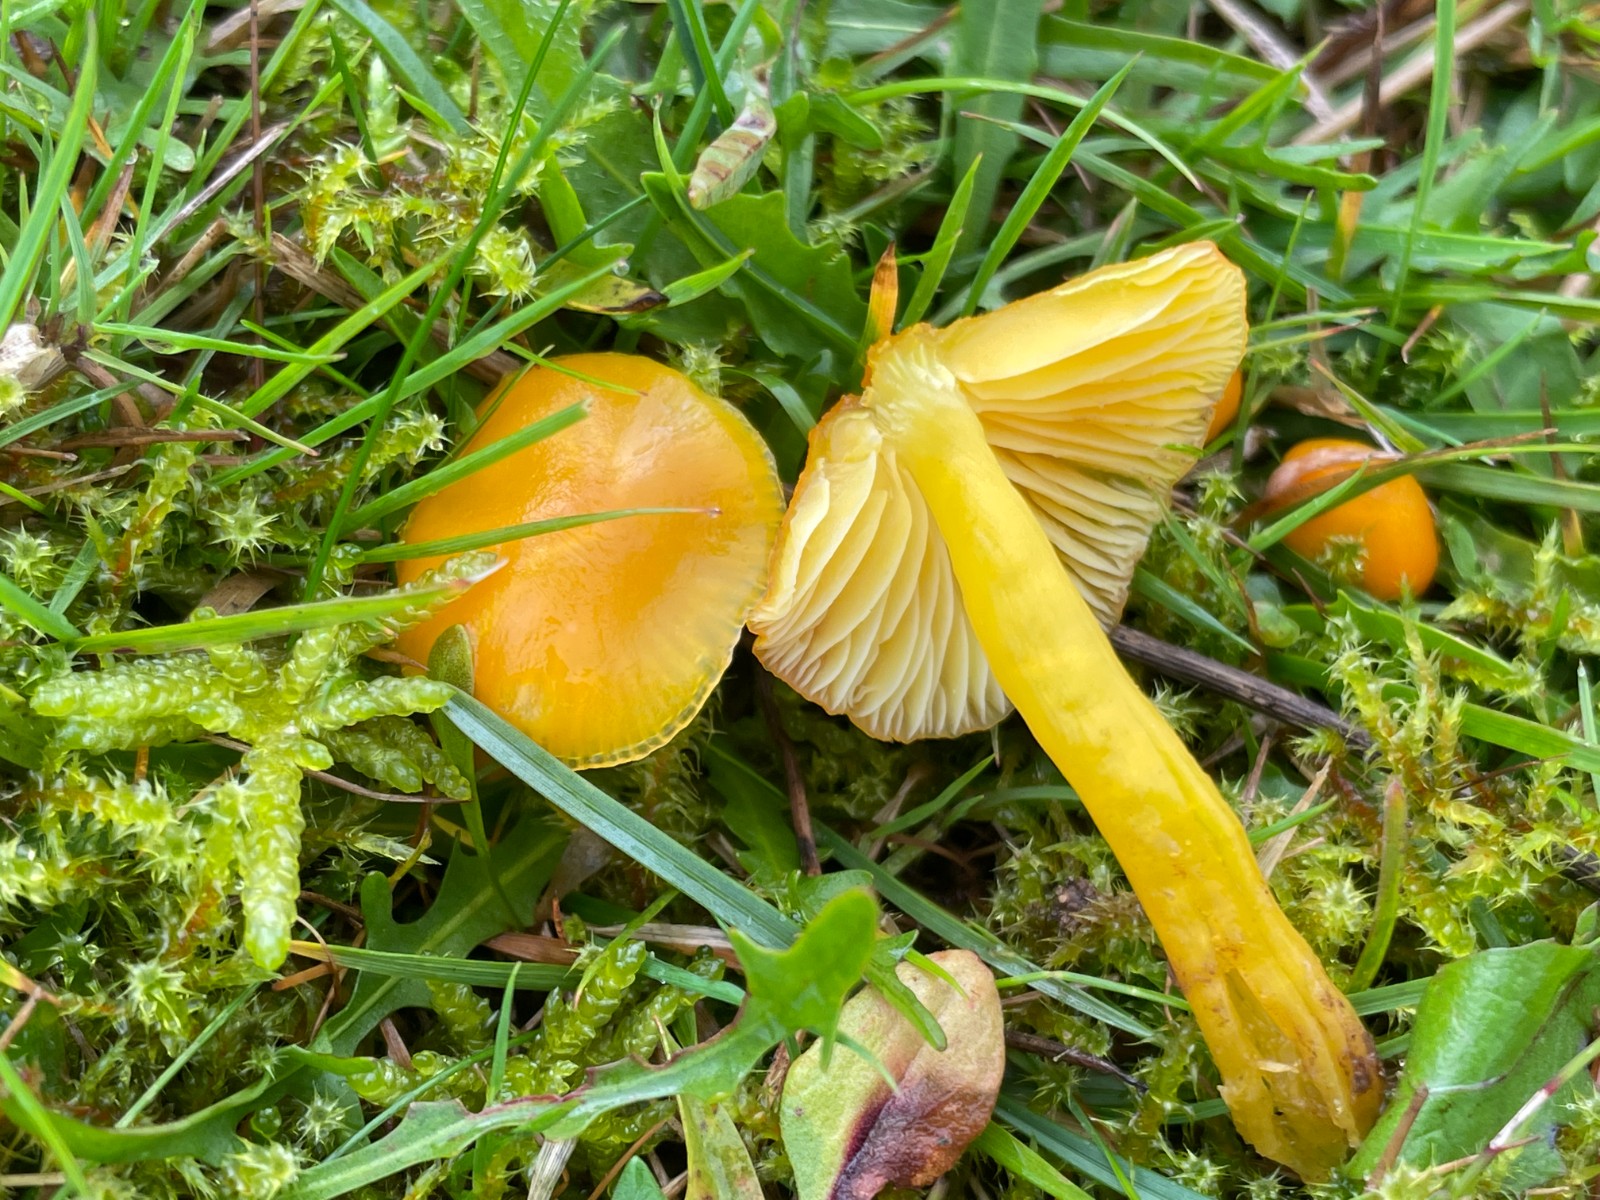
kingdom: Fungi
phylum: Basidiomycota
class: Agaricomycetes
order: Agaricales
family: Hygrophoraceae
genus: Hygrocybe
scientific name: Hygrocybe chlorophana
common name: gul vokshat
